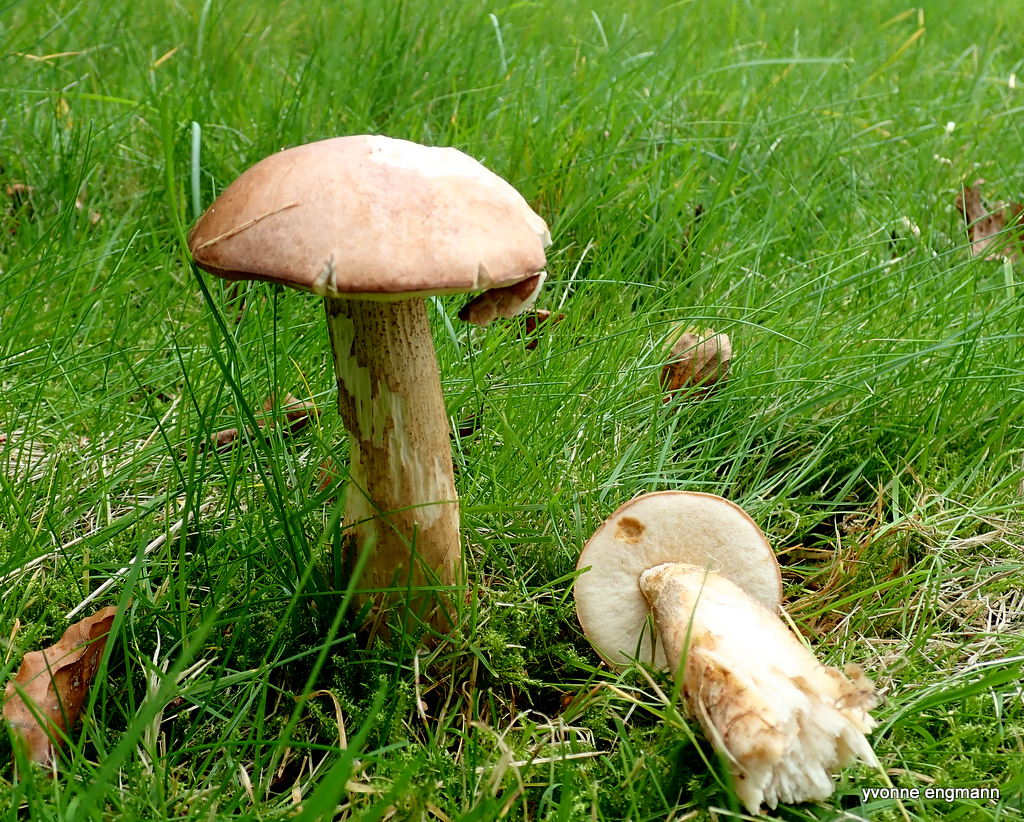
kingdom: Fungi
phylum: Basidiomycota
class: Agaricomycetes
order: Boletales
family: Boletaceae
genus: Leccinum
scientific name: Leccinum
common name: skælrørhat
